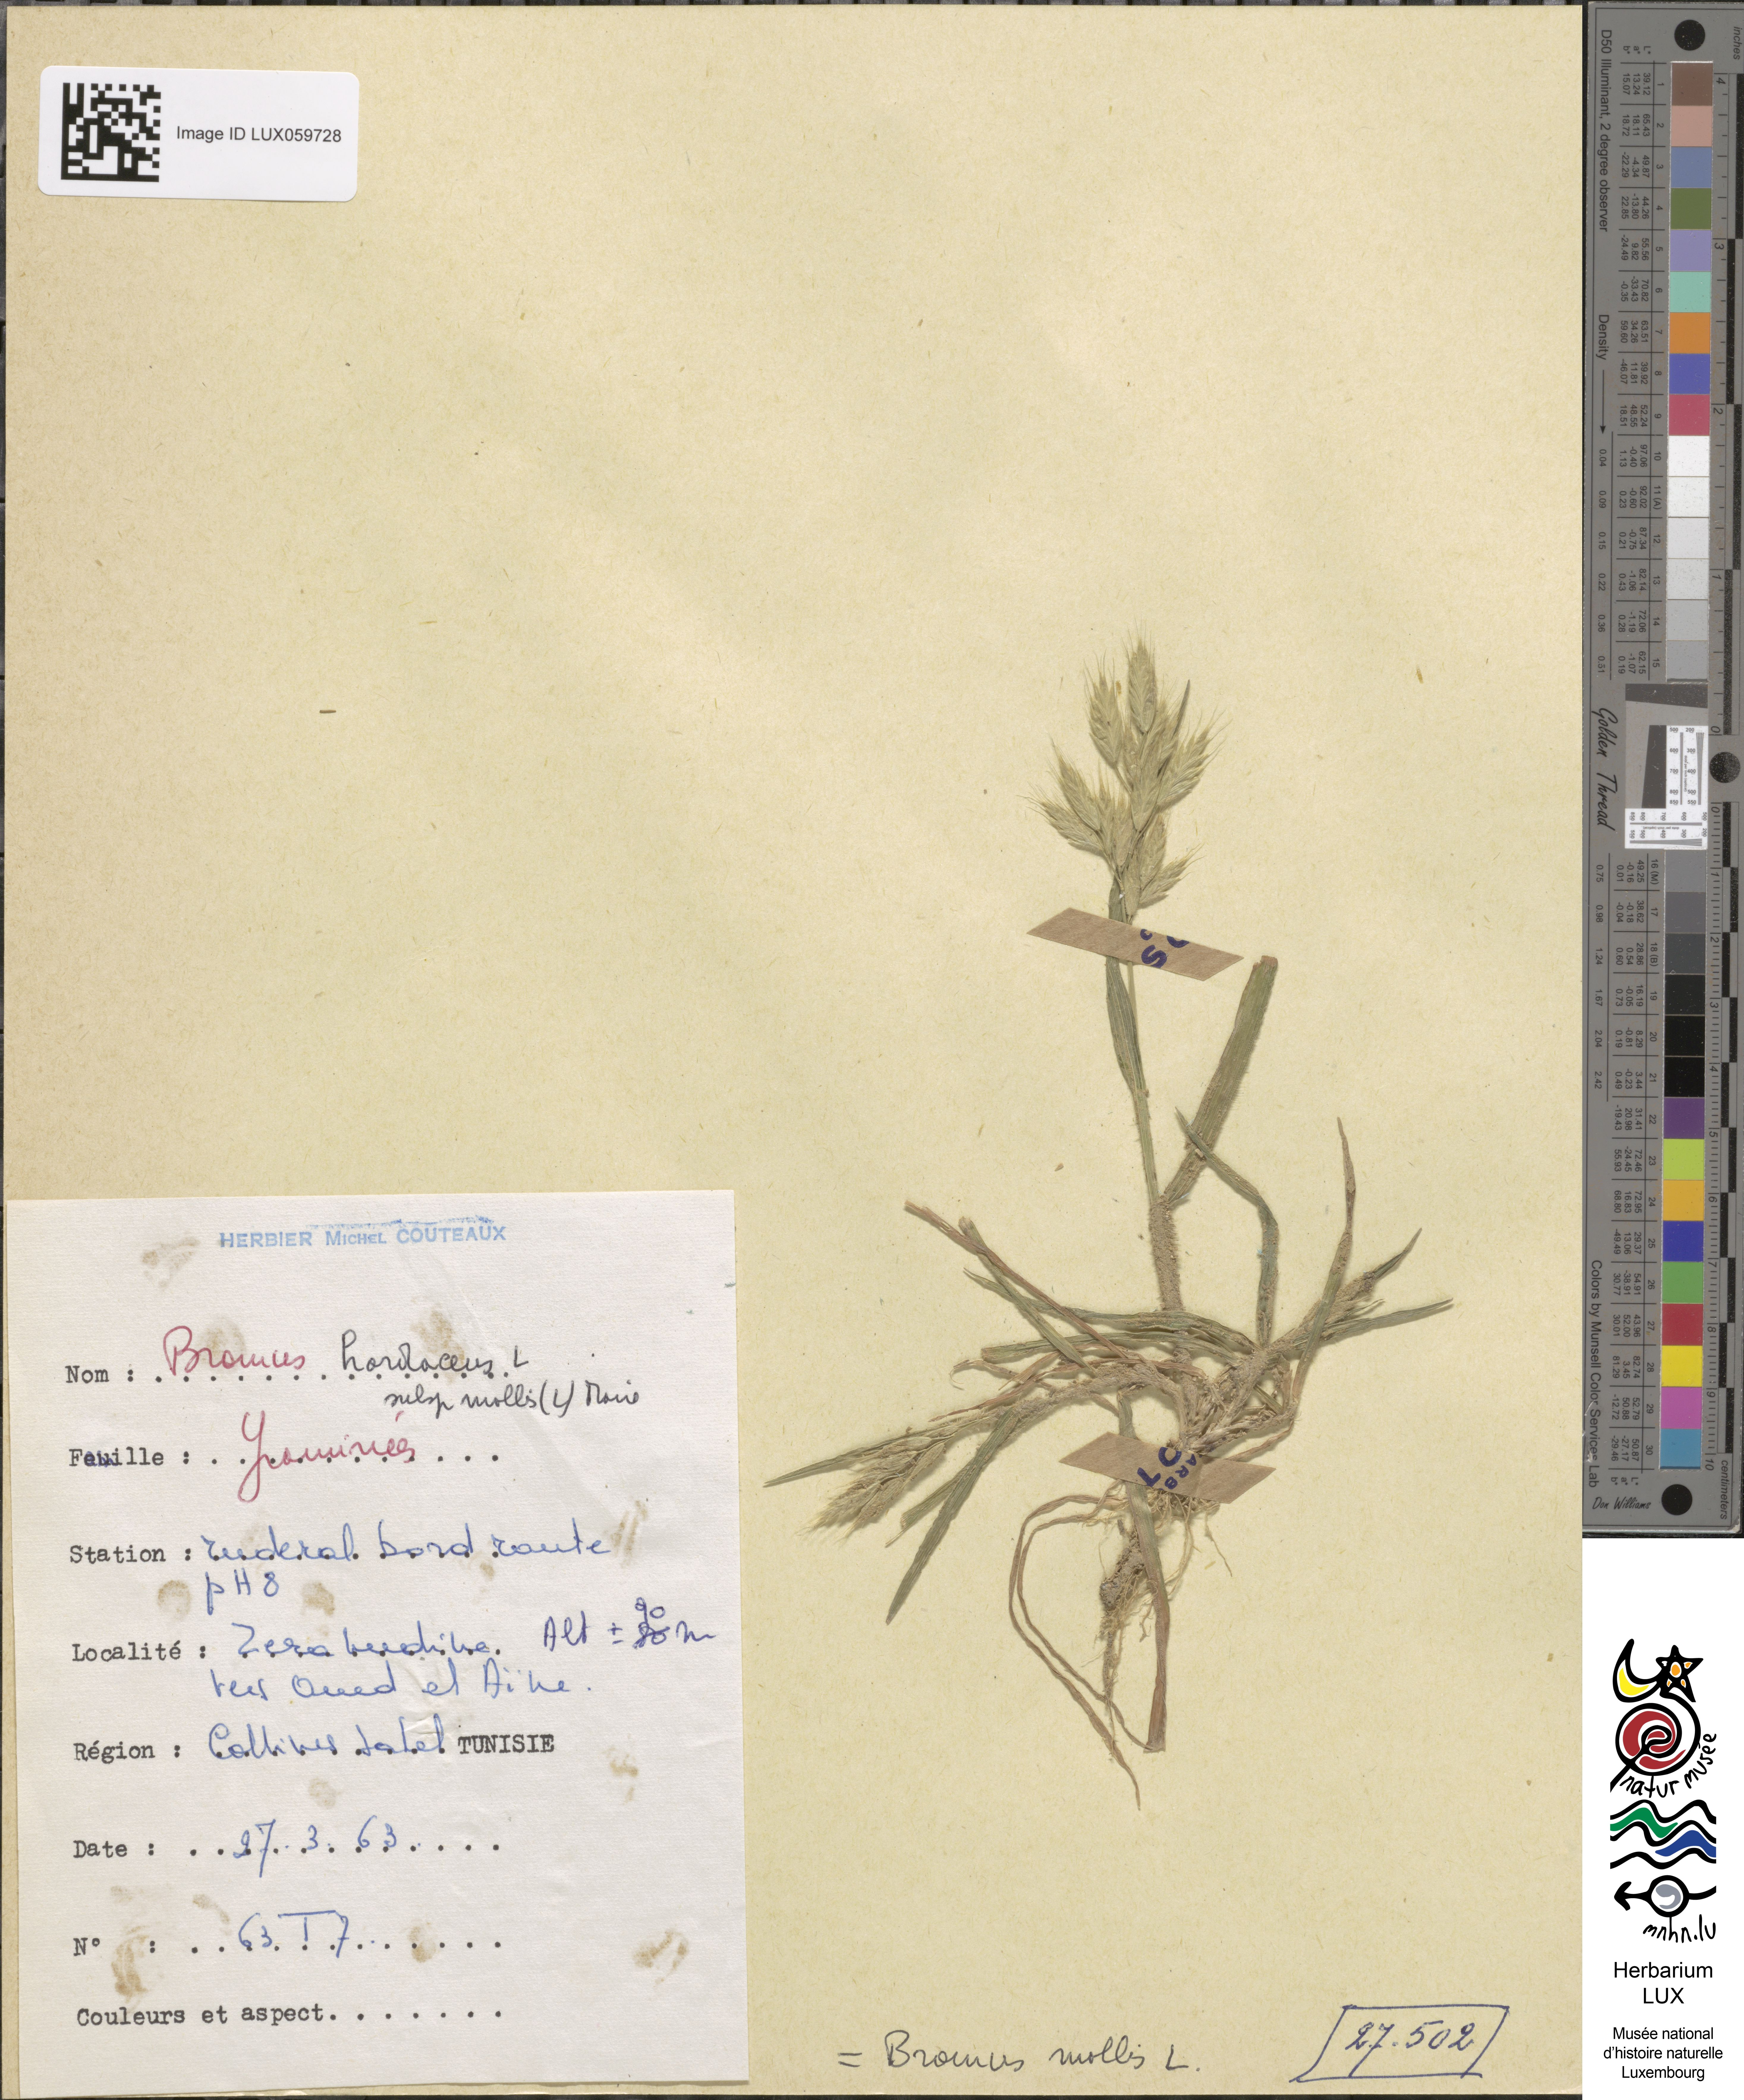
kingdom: Plantae
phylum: Tracheophyta
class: Liliopsida
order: Poales
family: Poaceae
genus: Bromus
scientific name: Bromus hordeaceus
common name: Soft brome
